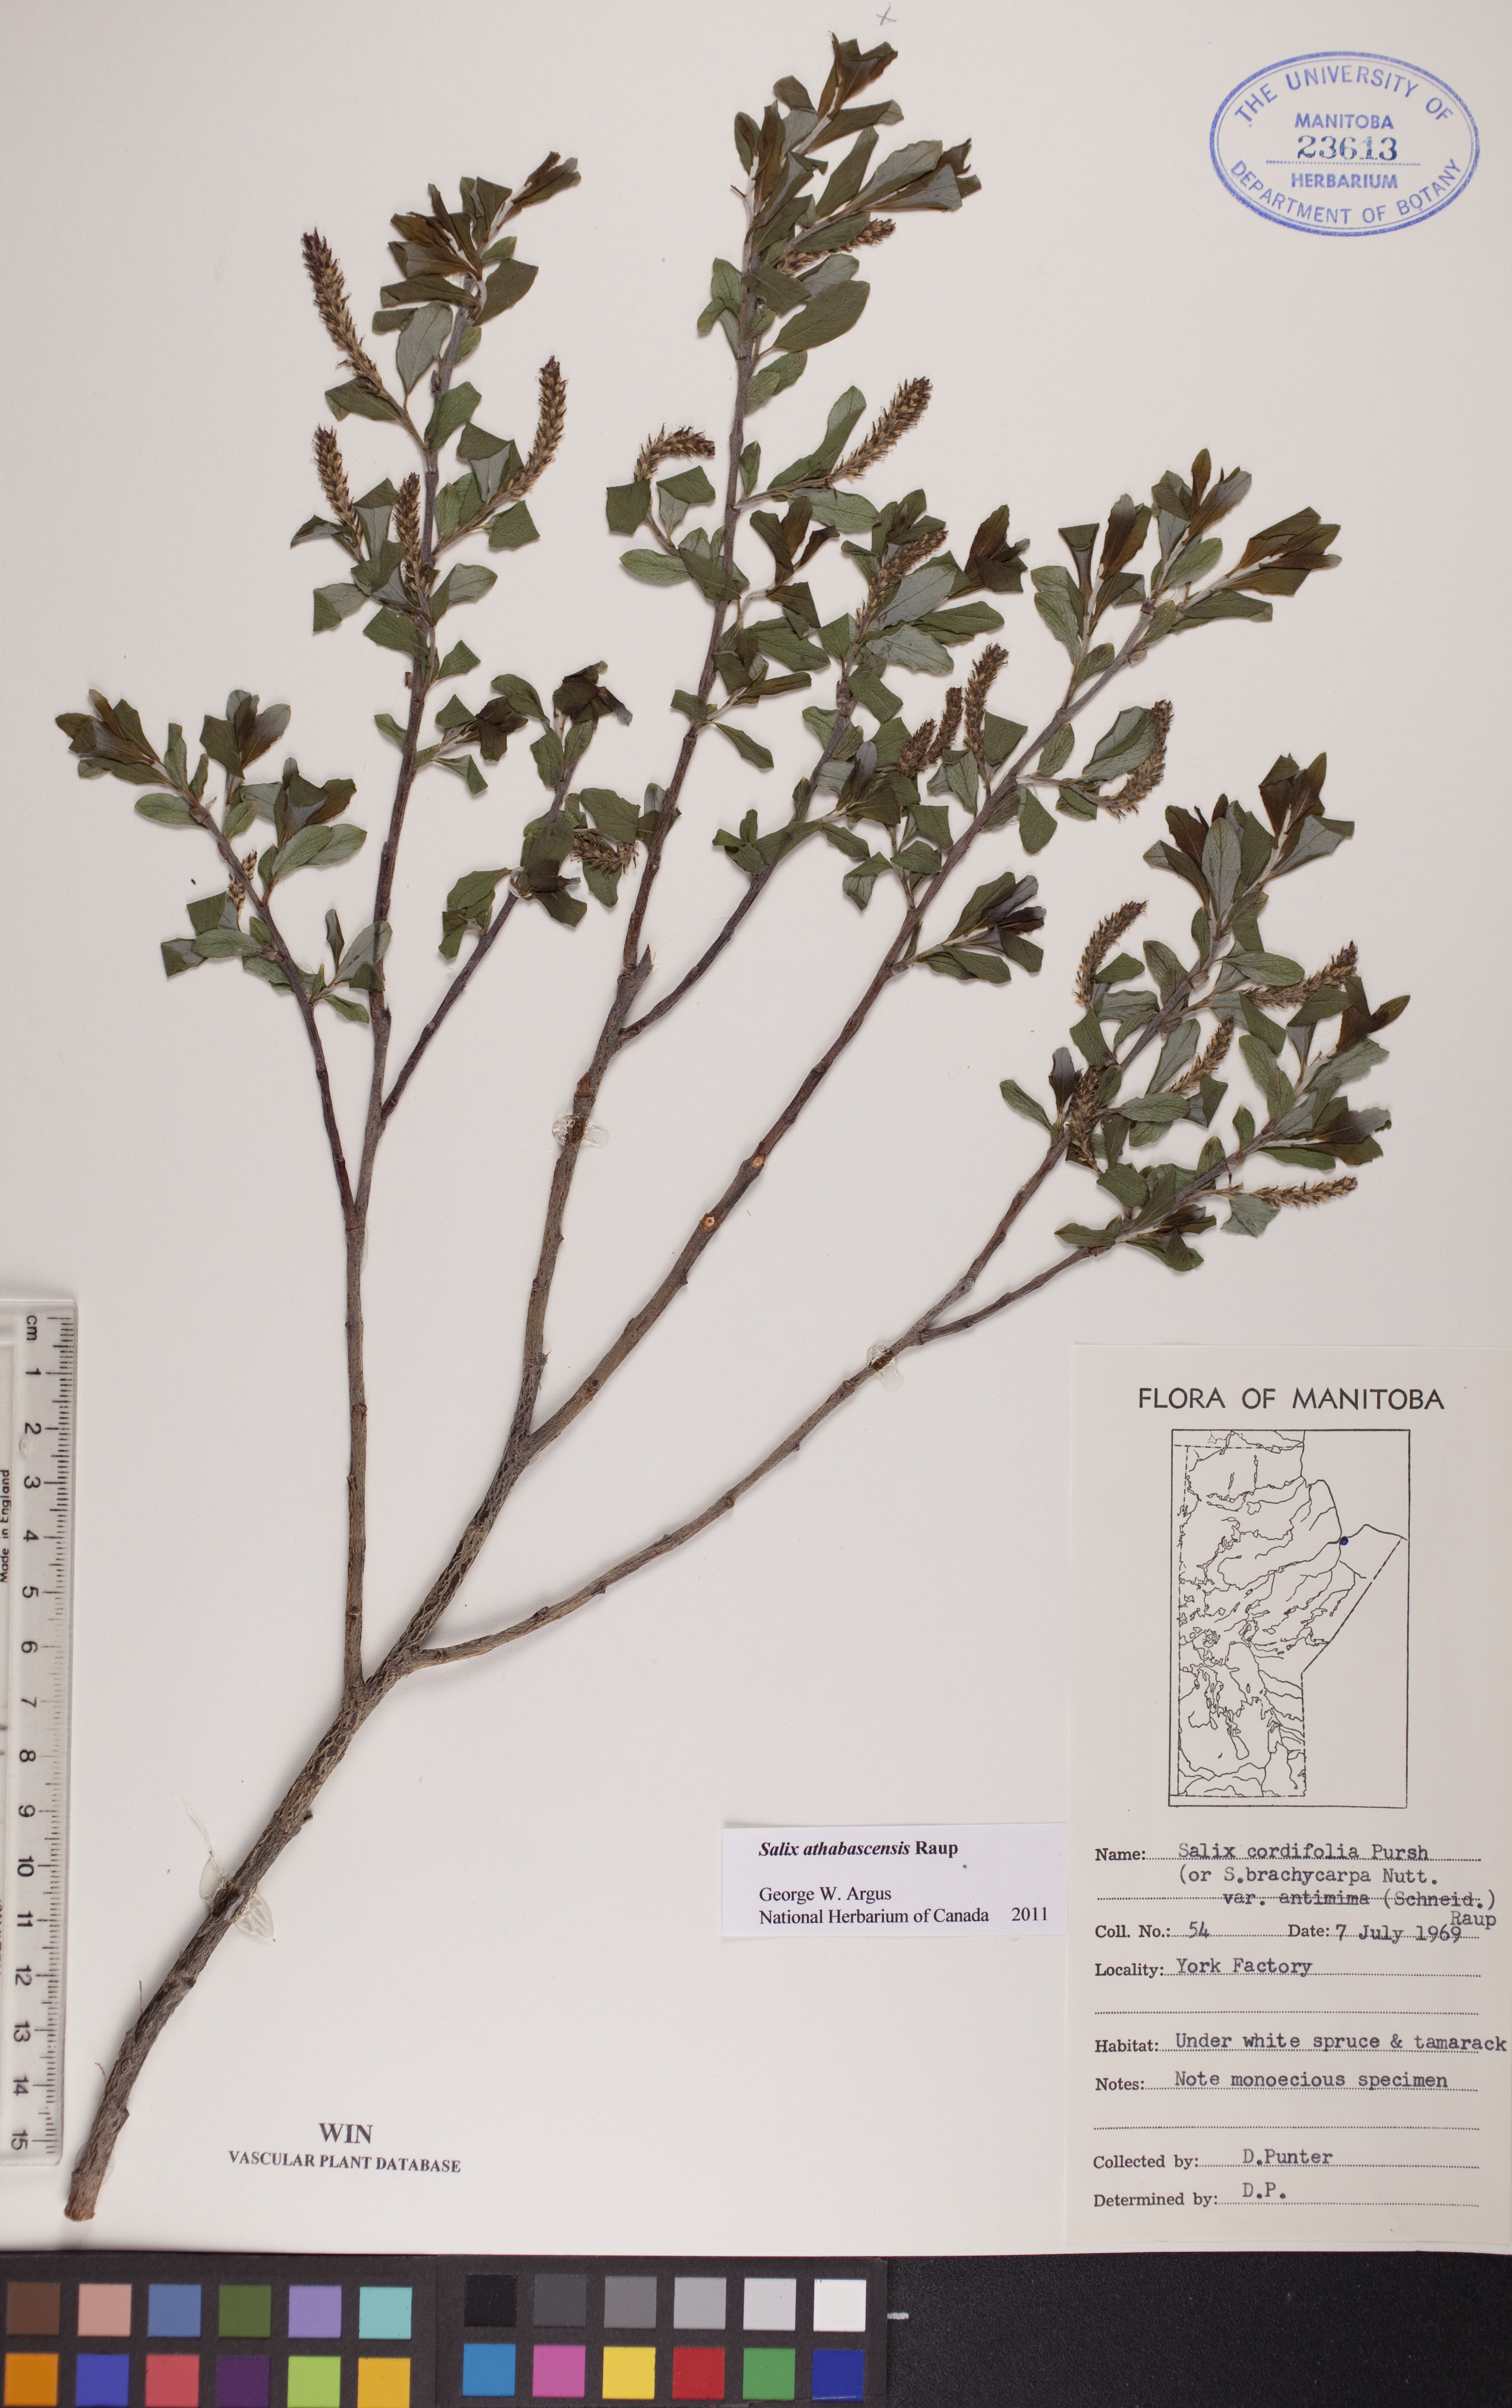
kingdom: Plantae
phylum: Tracheophyta
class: Magnoliopsida
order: Malpighiales
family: Salicaceae
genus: Salix
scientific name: Salix athabascensis
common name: Athabasca willow
